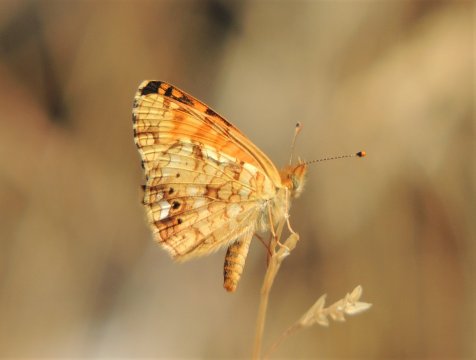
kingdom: Animalia
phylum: Arthropoda
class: Insecta
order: Lepidoptera
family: Nymphalidae
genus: Eresia
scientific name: Eresia aveyrona
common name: Mylitta Crescent
